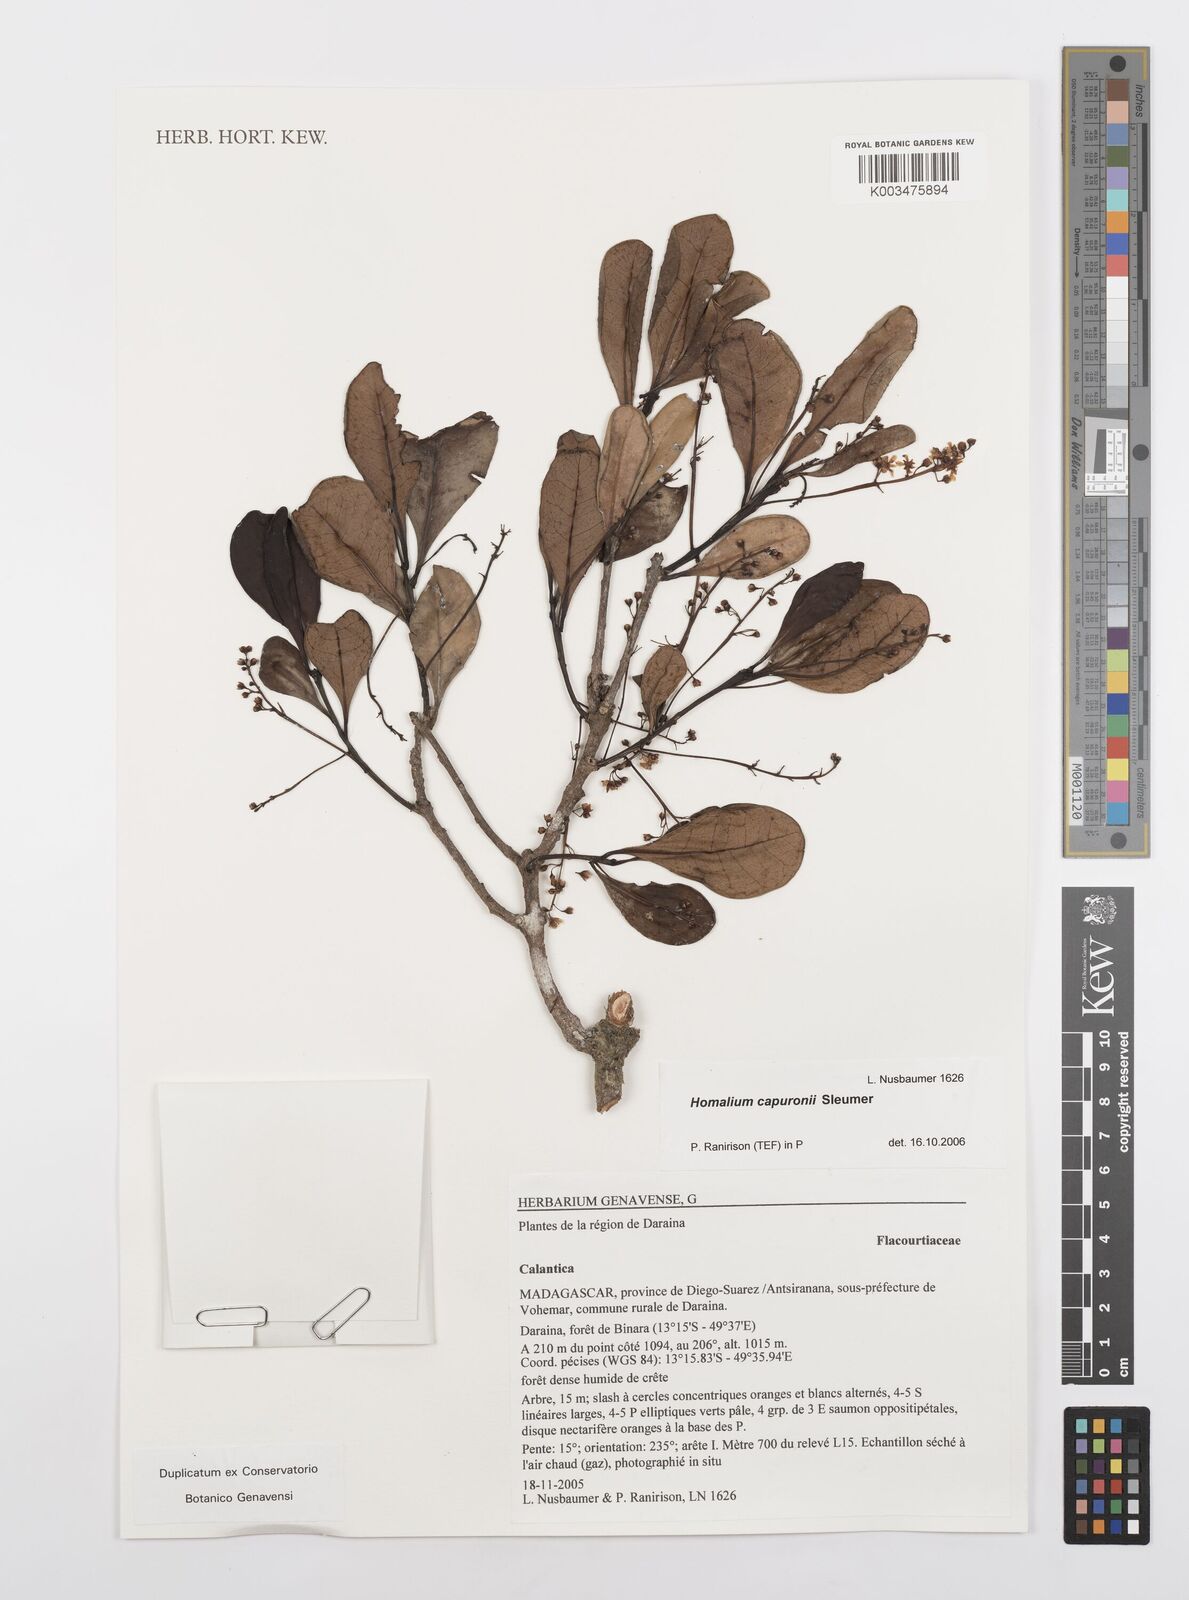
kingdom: Plantae
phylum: Tracheophyta
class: Magnoliopsida
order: Malpighiales
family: Salicaceae
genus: Homalium
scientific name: Homalium capuronii
